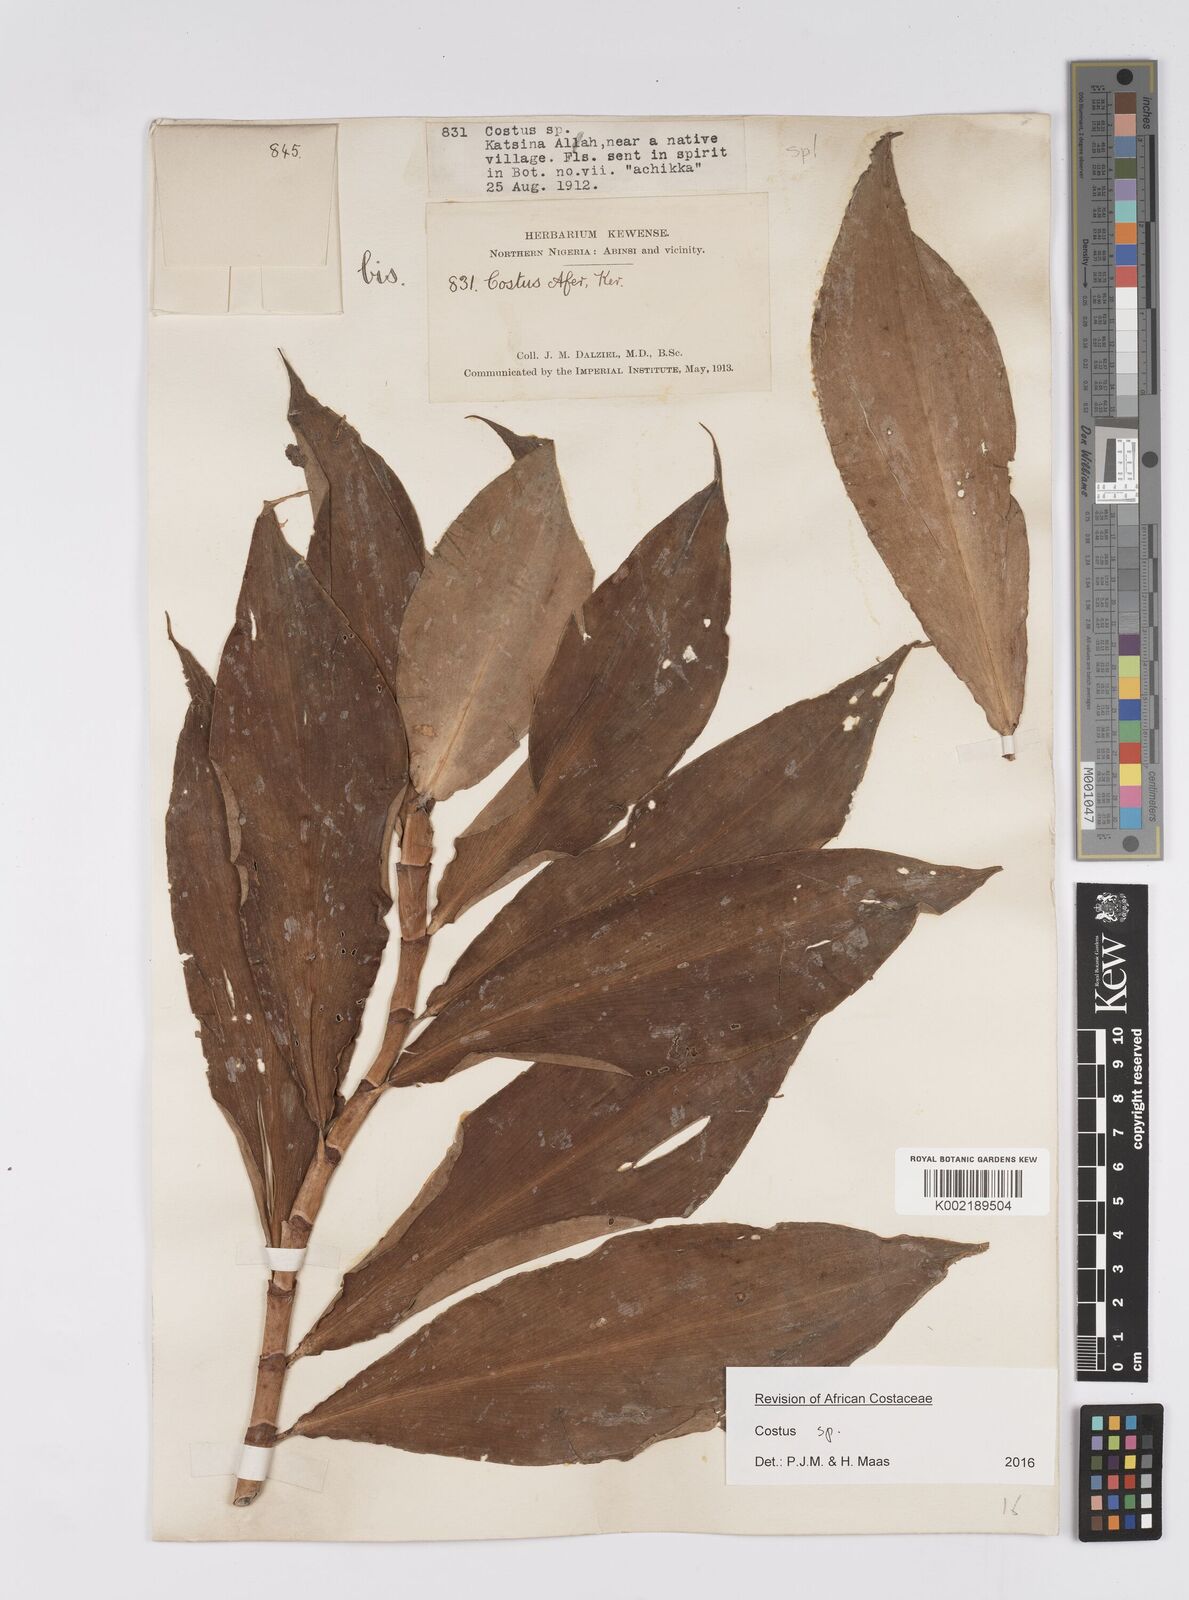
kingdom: Plantae
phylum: Tracheophyta
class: Liliopsida
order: Zingiberales
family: Costaceae
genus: Costus
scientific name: Costus afer
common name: Spiral-ginger
